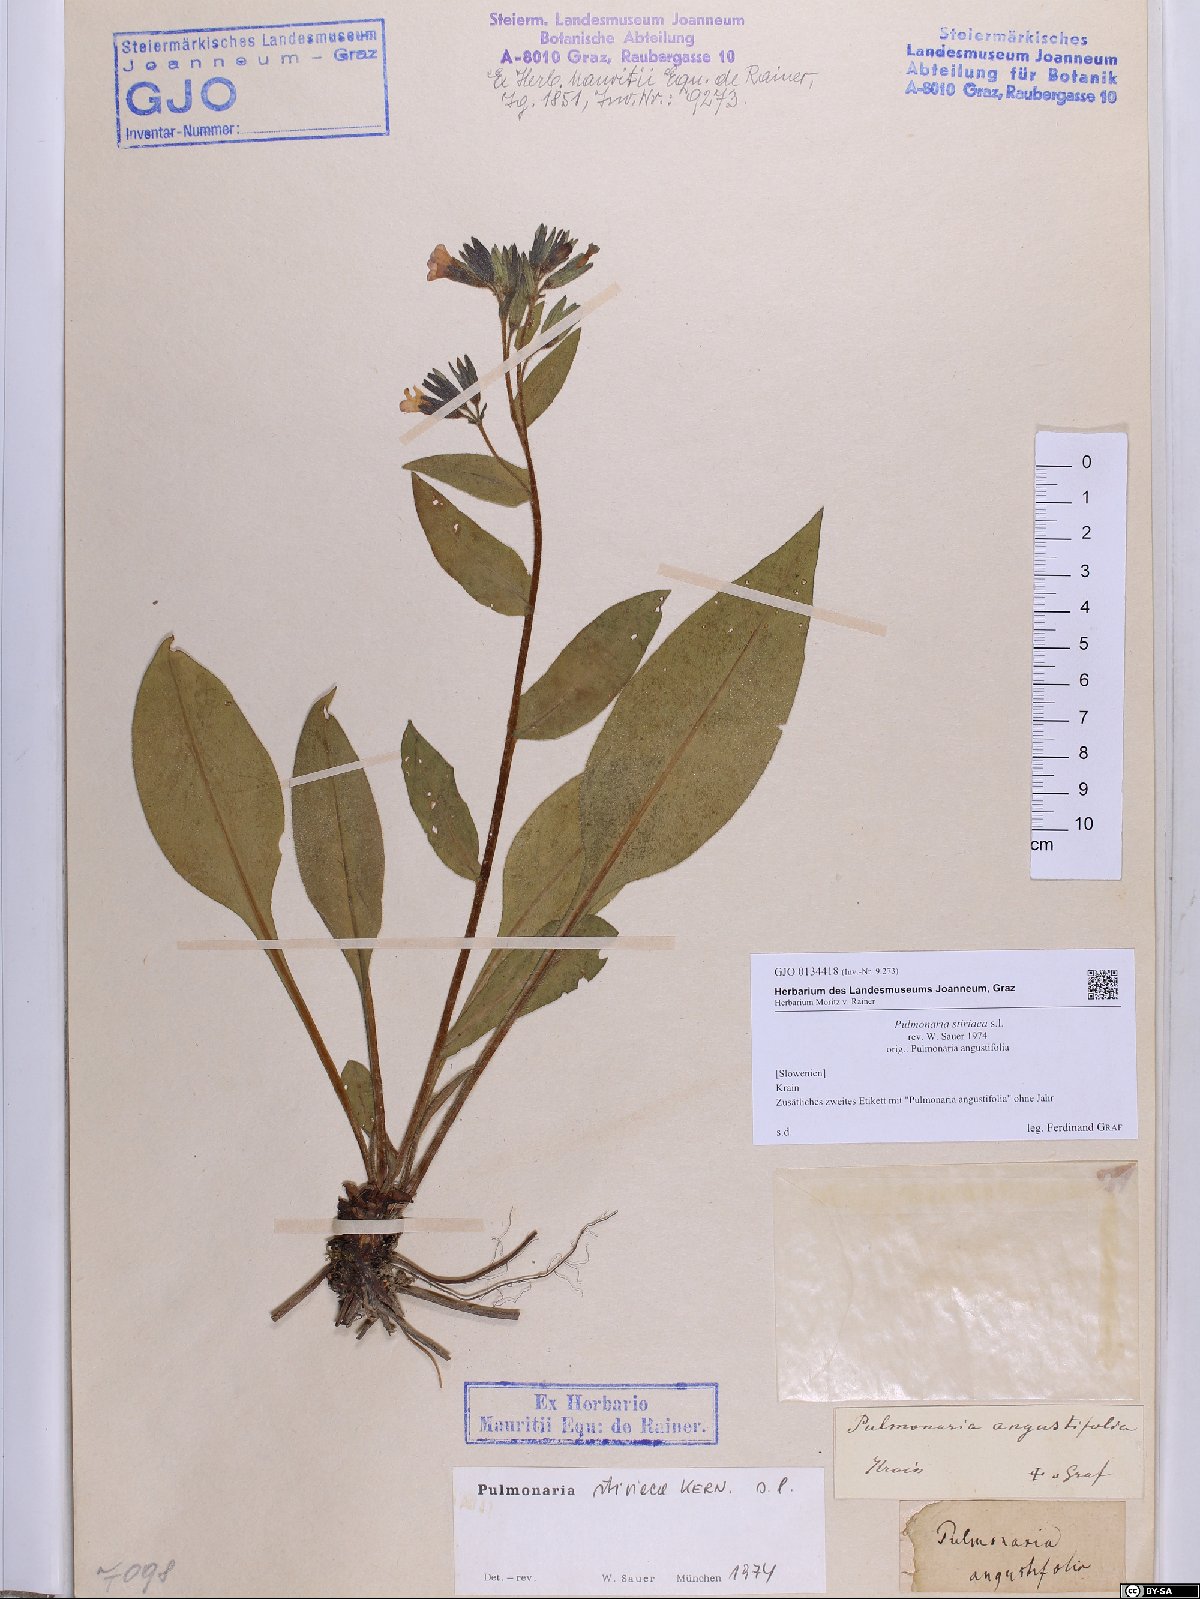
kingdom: Plantae
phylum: Tracheophyta
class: Magnoliopsida
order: Boraginales
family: Boraginaceae
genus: Pulmonaria
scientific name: Pulmonaria stiriaca
